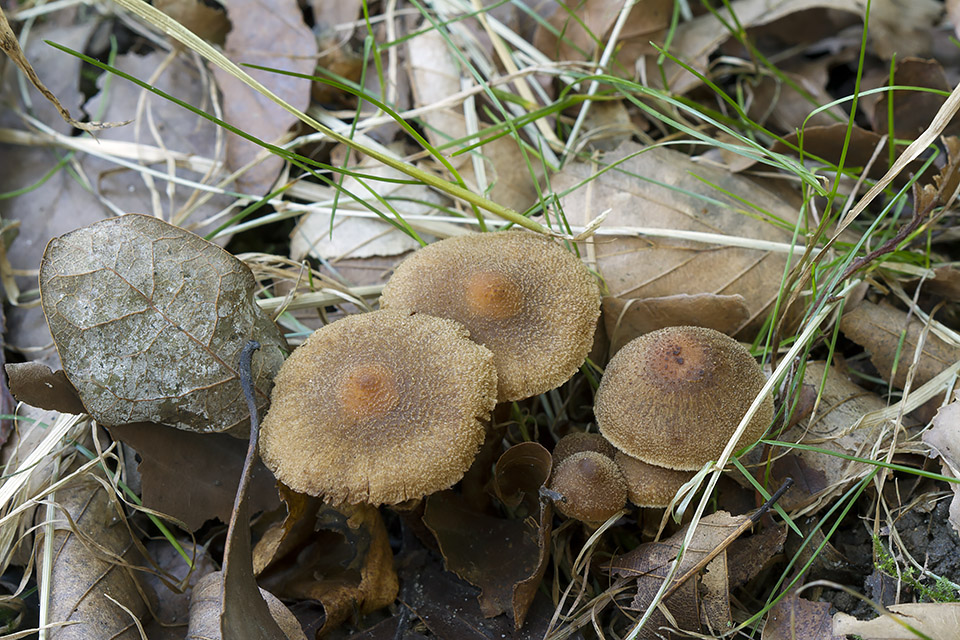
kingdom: Fungi
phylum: Basidiomycota
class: Agaricomycetes
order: Agaricales
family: Cortinariaceae
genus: Cortinarius
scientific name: Cortinarius quercoconicus
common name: agernskål-slørhat
